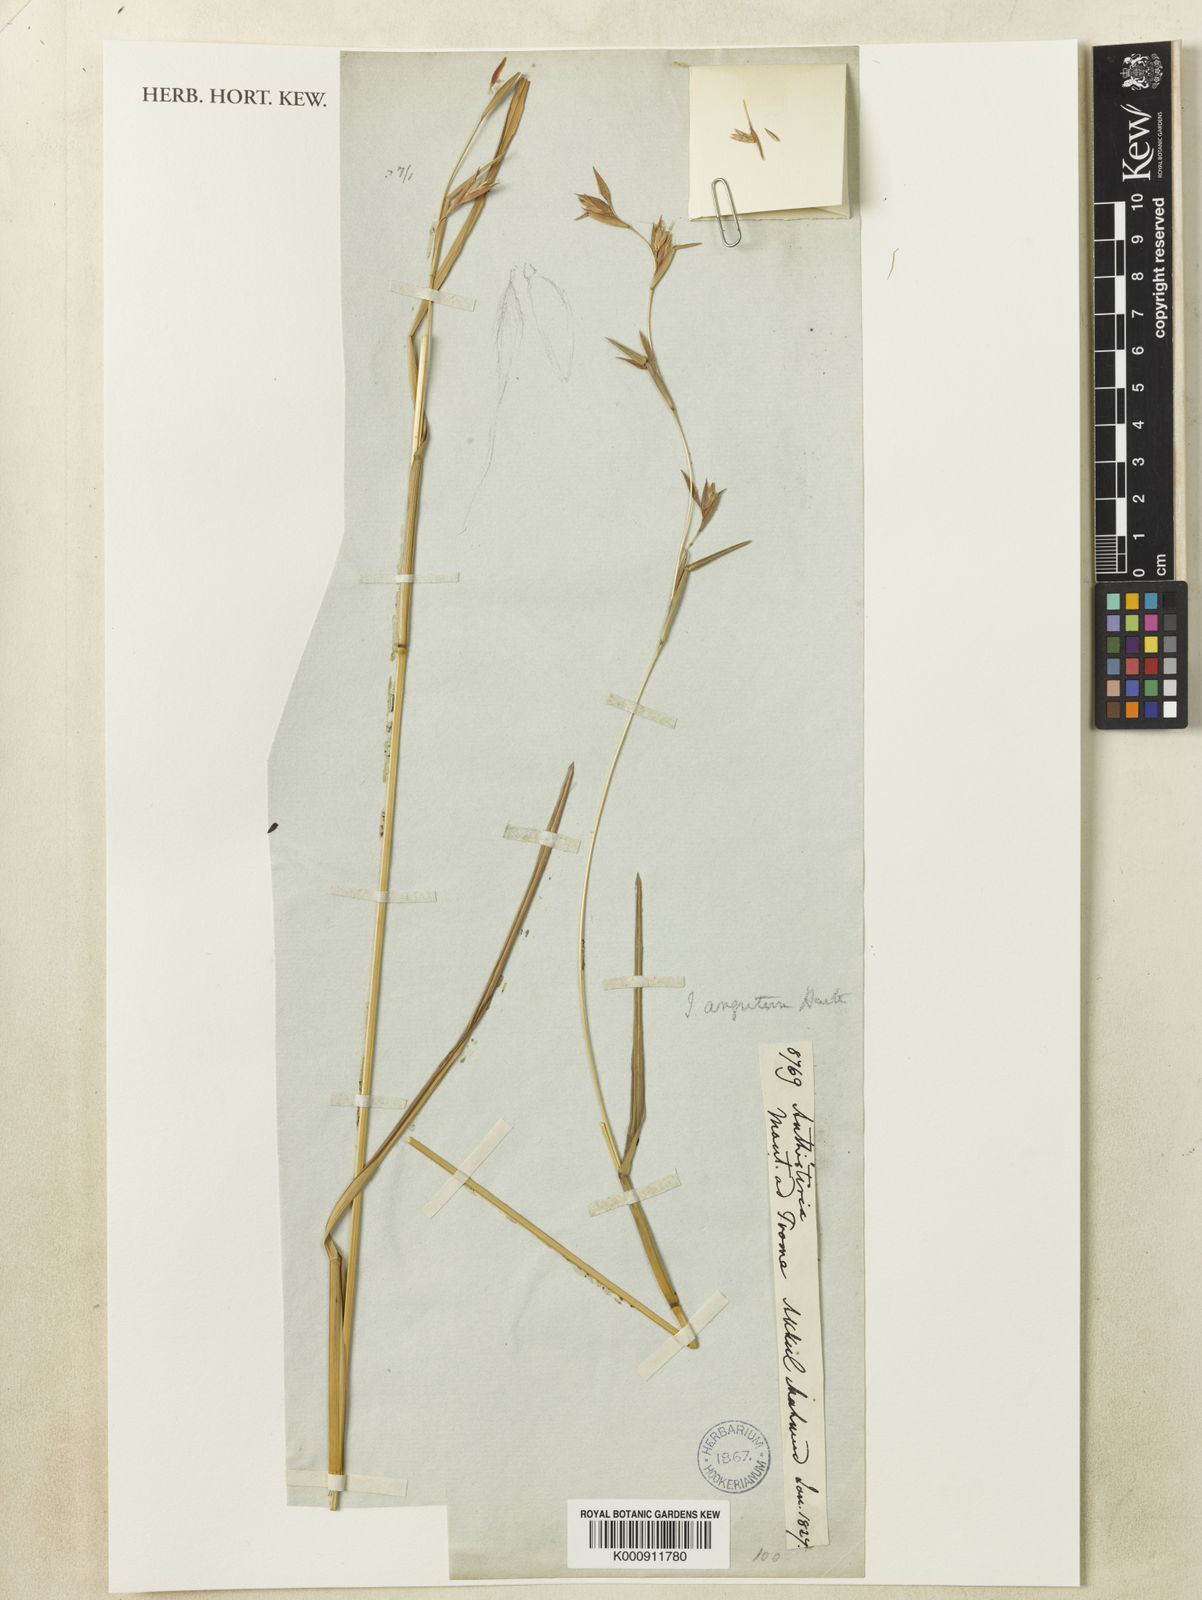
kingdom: Plantae
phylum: Tracheophyta
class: Liliopsida
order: Poales
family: Poaceae
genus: Iseilema
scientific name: Iseilema
